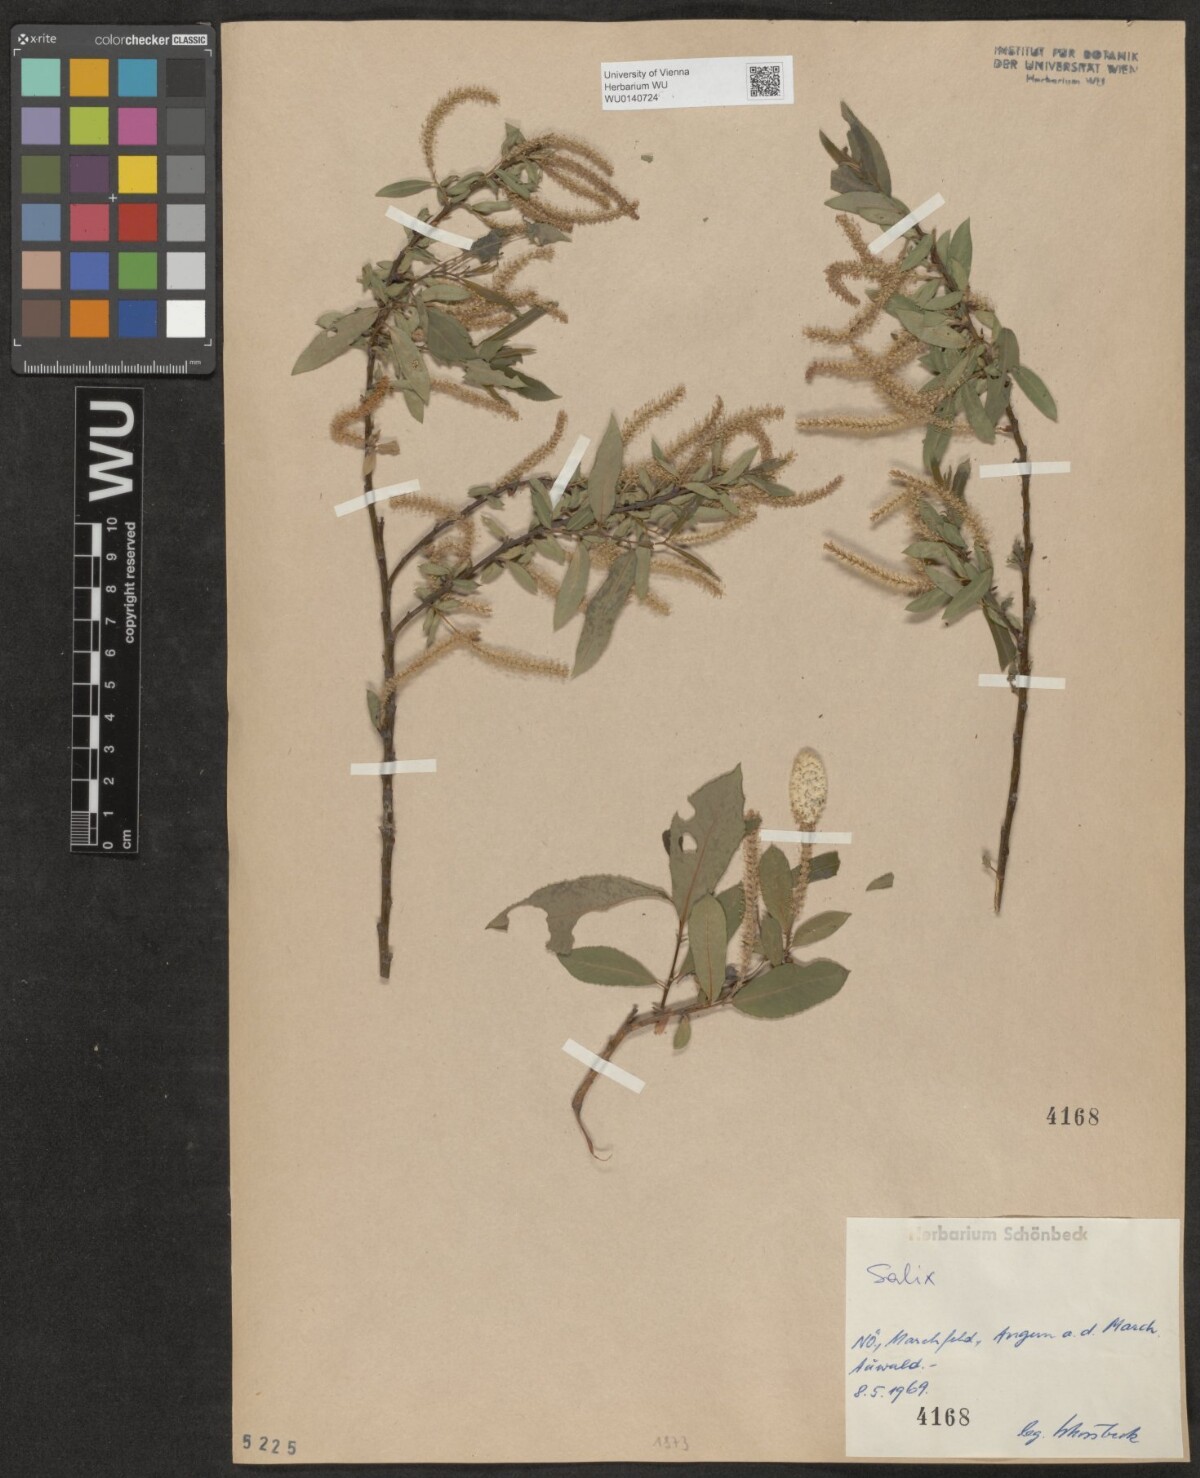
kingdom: Plantae
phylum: Tracheophyta
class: Magnoliopsida
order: Malpighiales
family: Salicaceae
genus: Salix
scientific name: Salix
